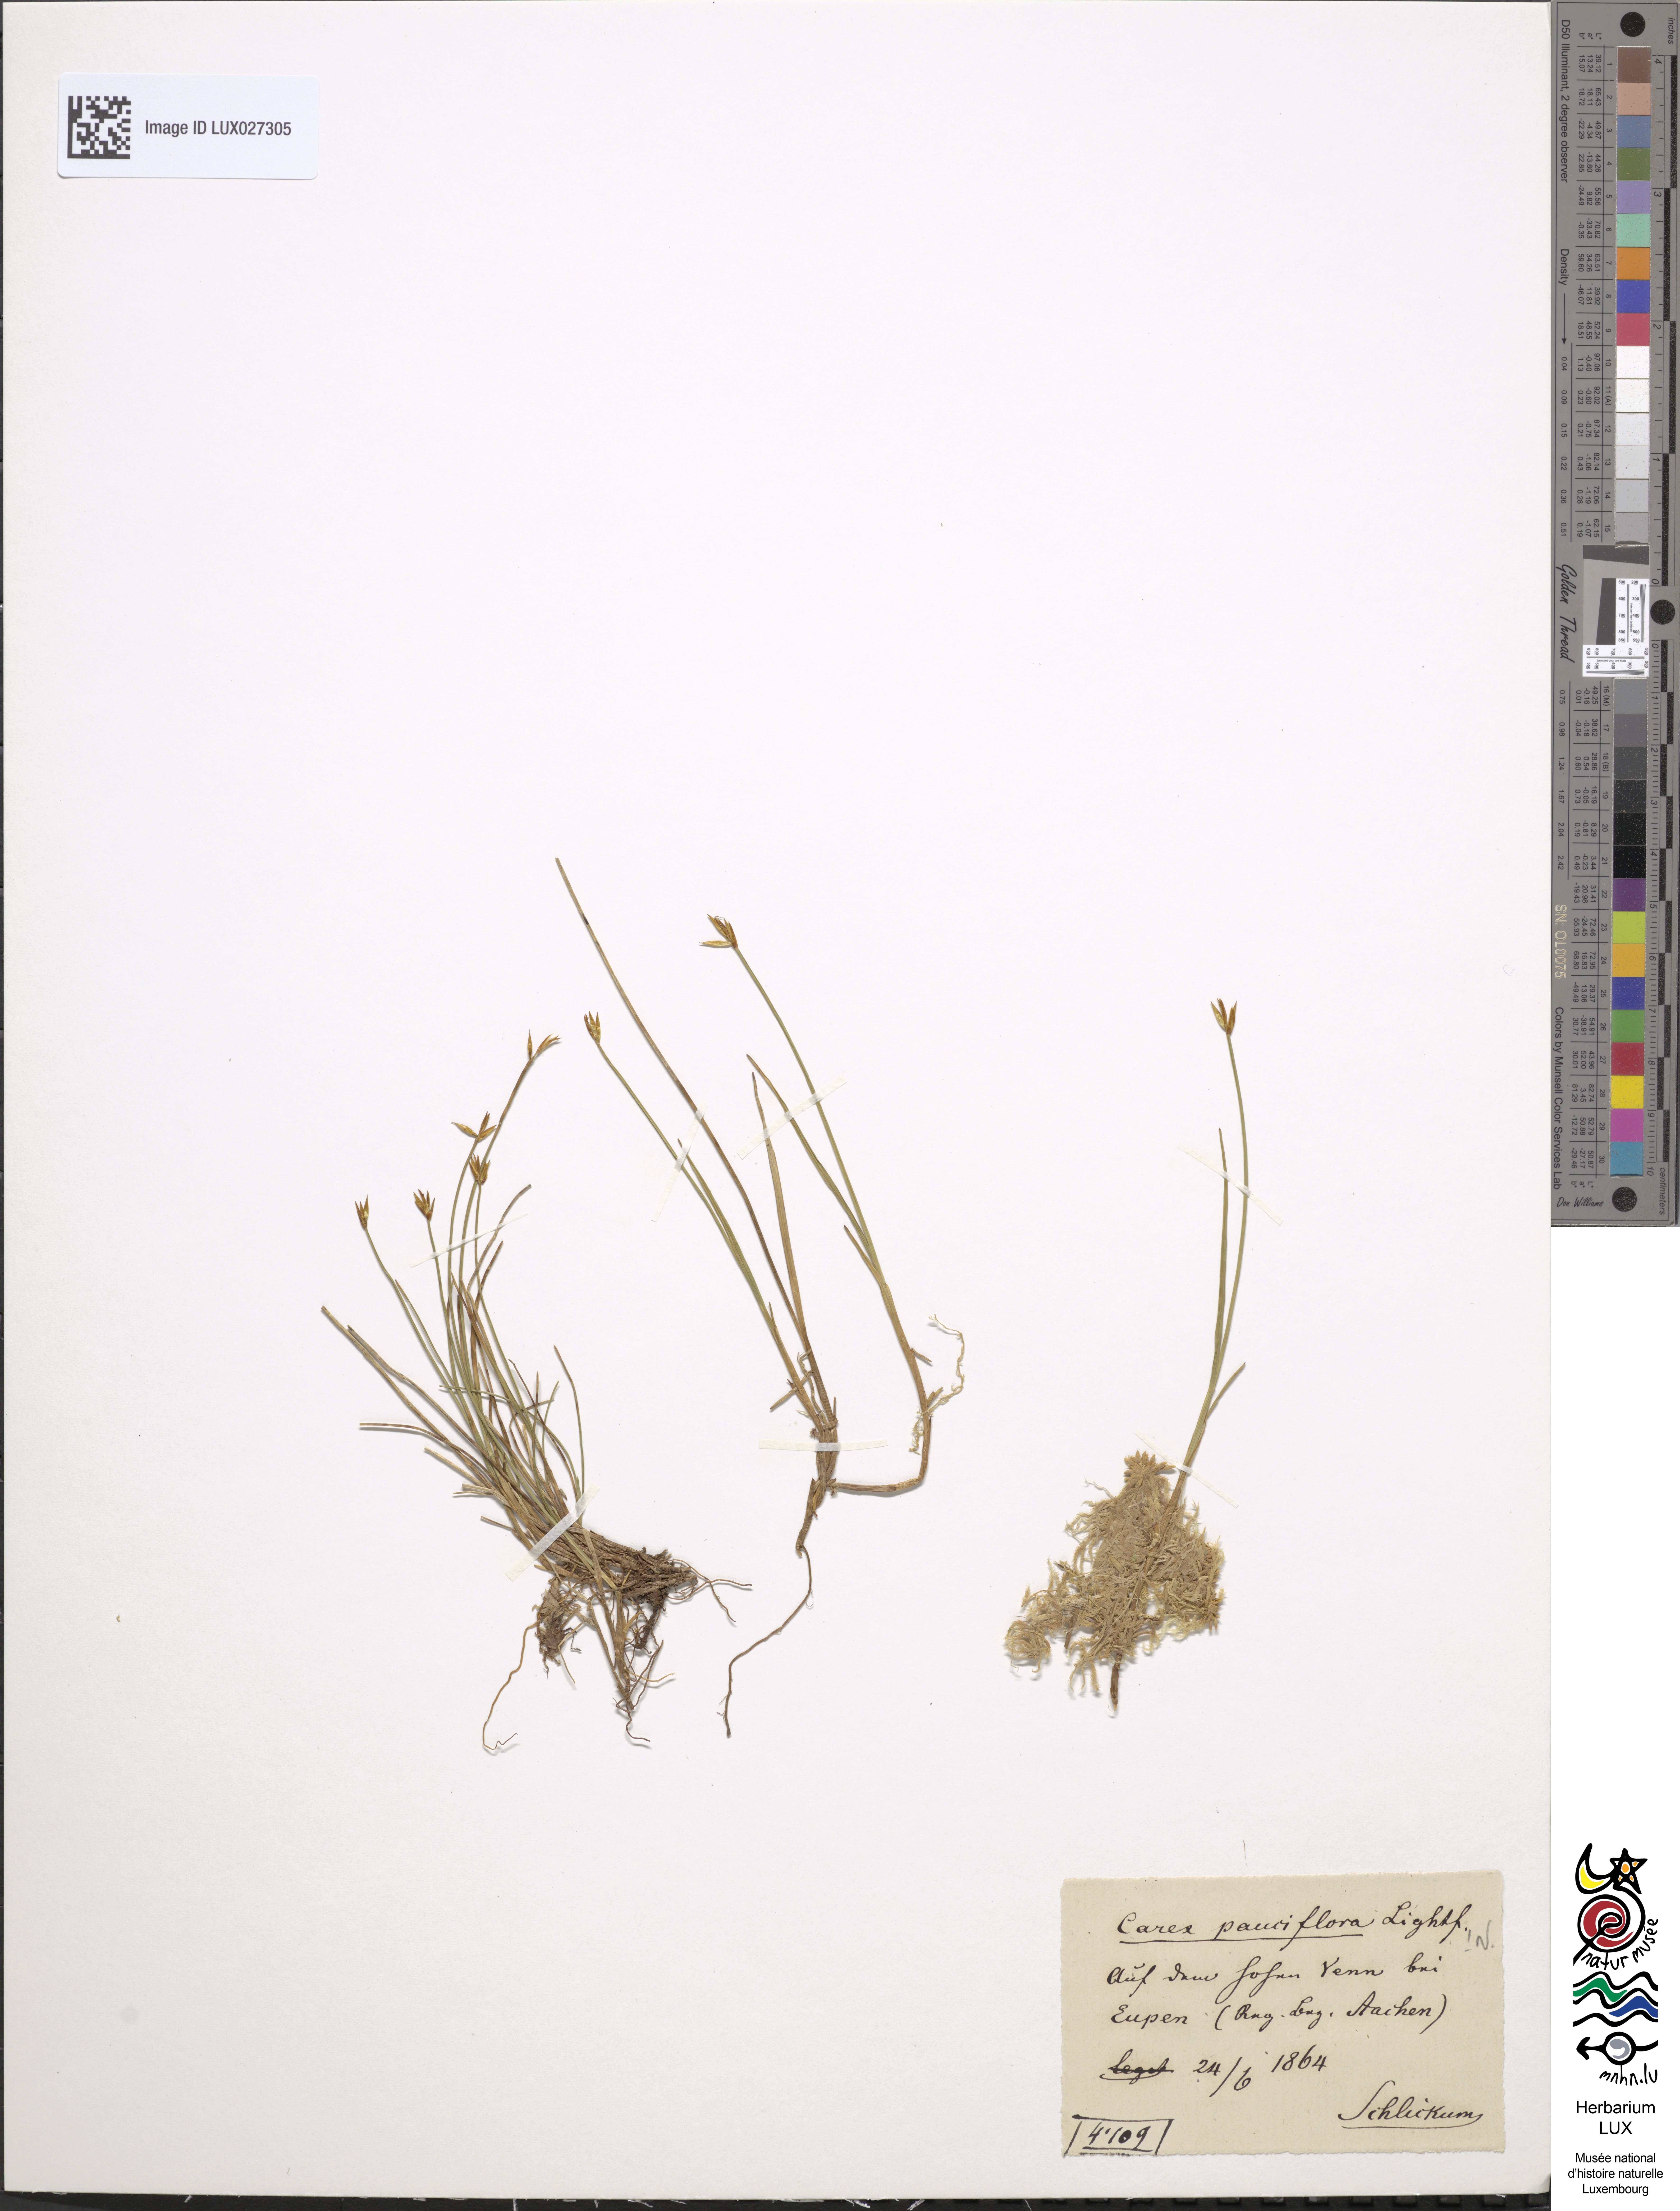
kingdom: Plantae
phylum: Tracheophyta
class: Liliopsida
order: Poales
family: Cyperaceae
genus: Carex
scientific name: Carex pauciflora
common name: Few-flowered sedge
